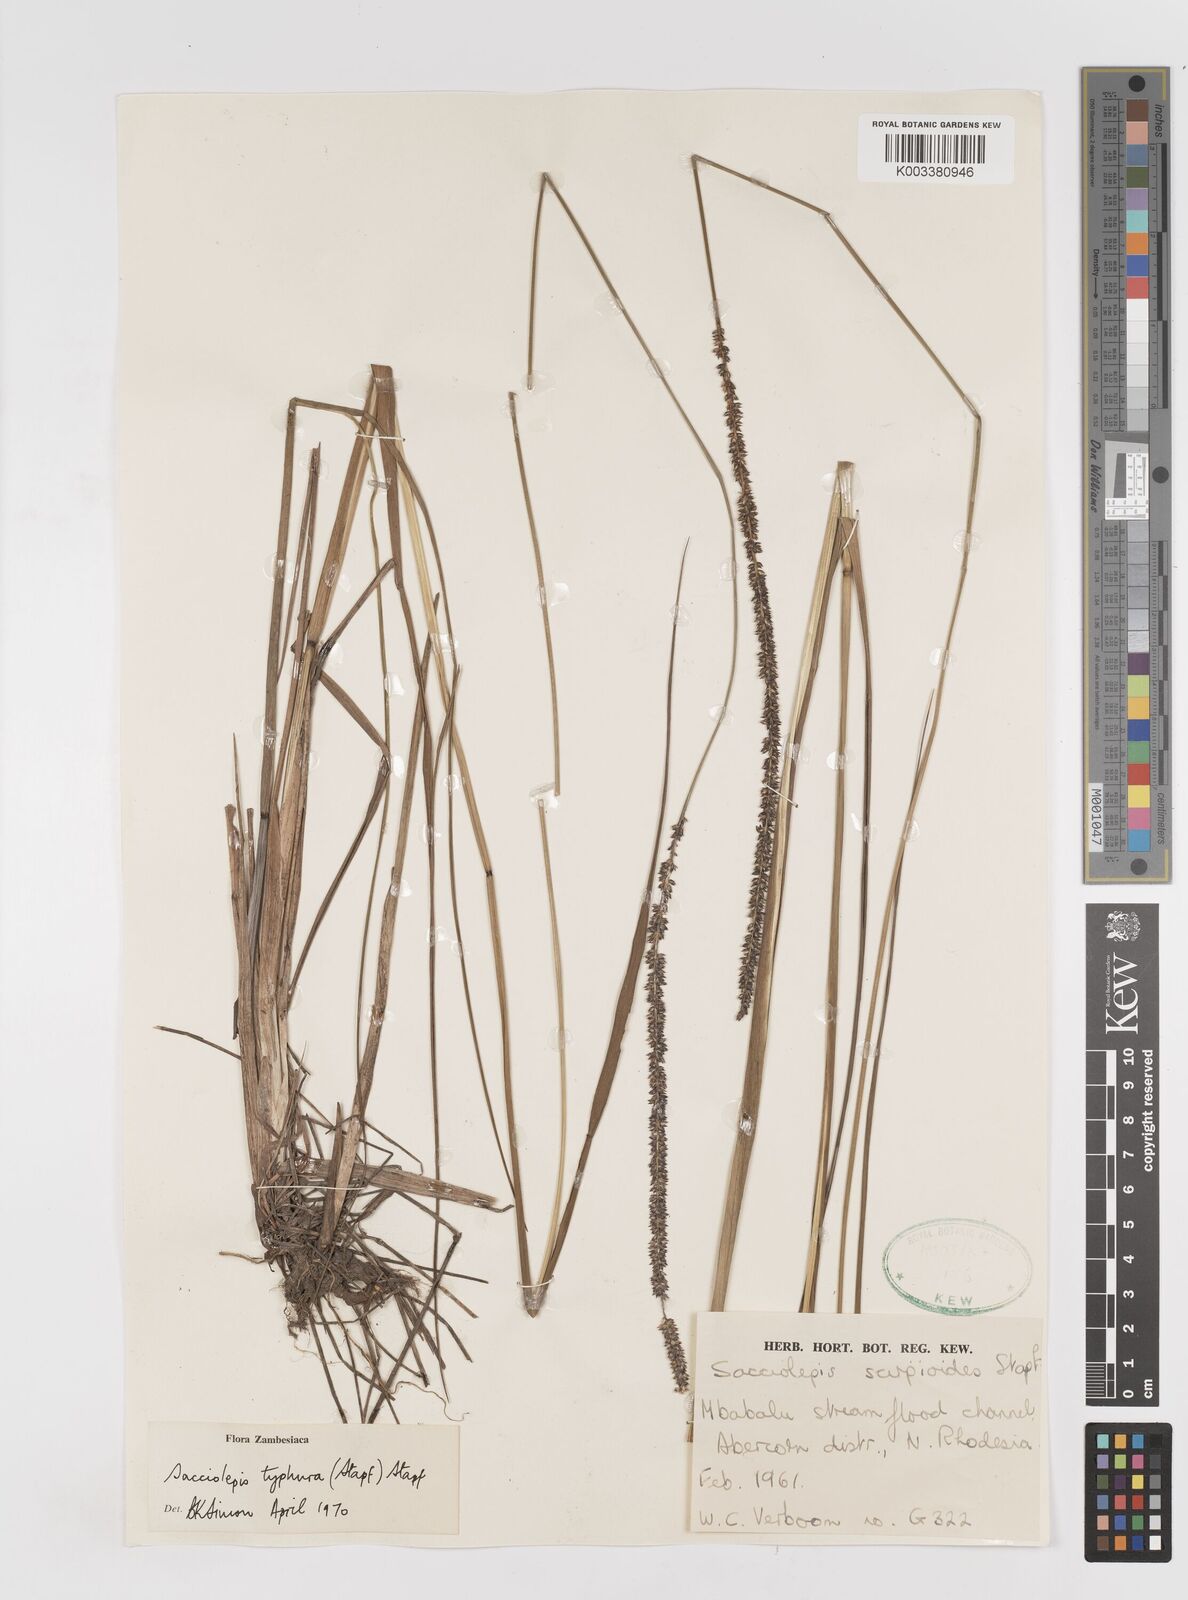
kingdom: Plantae
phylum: Tracheophyta
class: Liliopsida
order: Poales
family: Poaceae
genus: Sacciolepis
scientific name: Sacciolepis typhura
